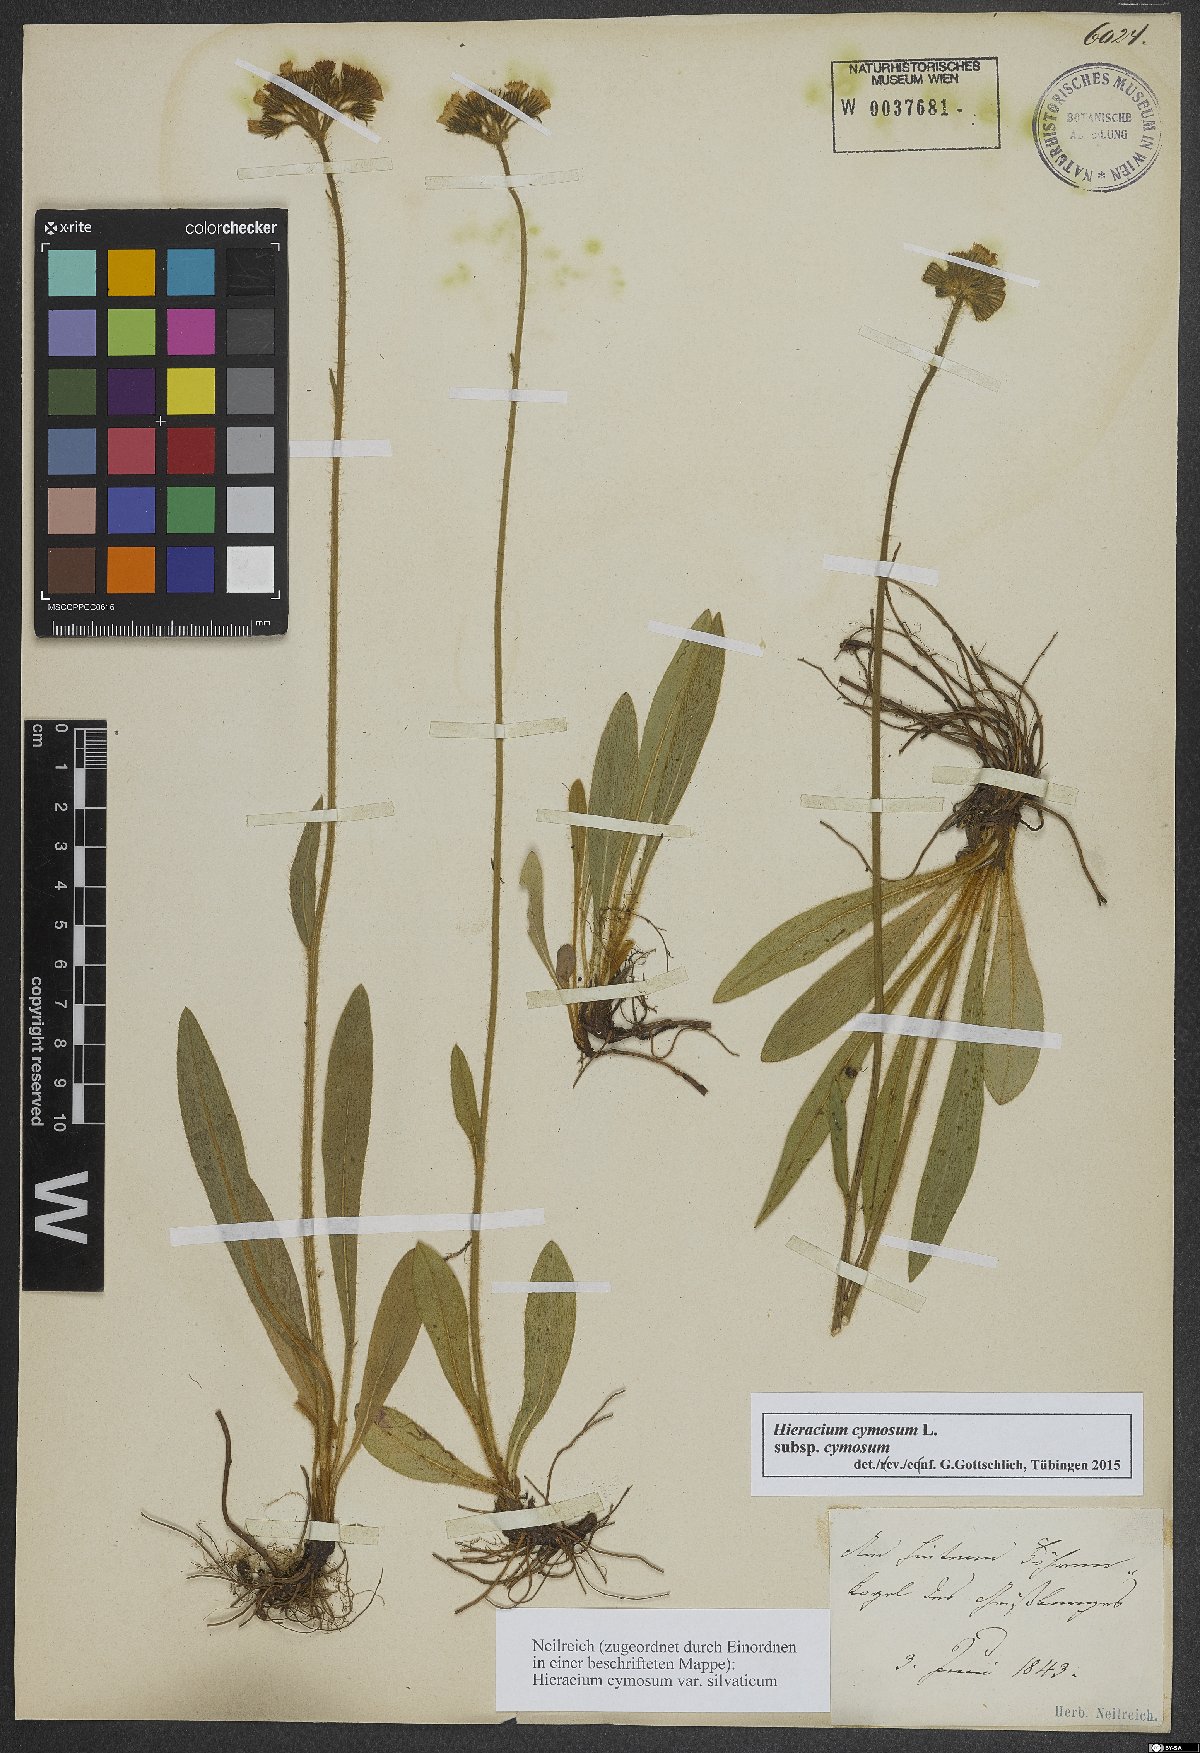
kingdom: Plantae
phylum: Tracheophyta
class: Magnoliopsida
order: Asterales
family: Asteraceae
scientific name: Asteraceae
